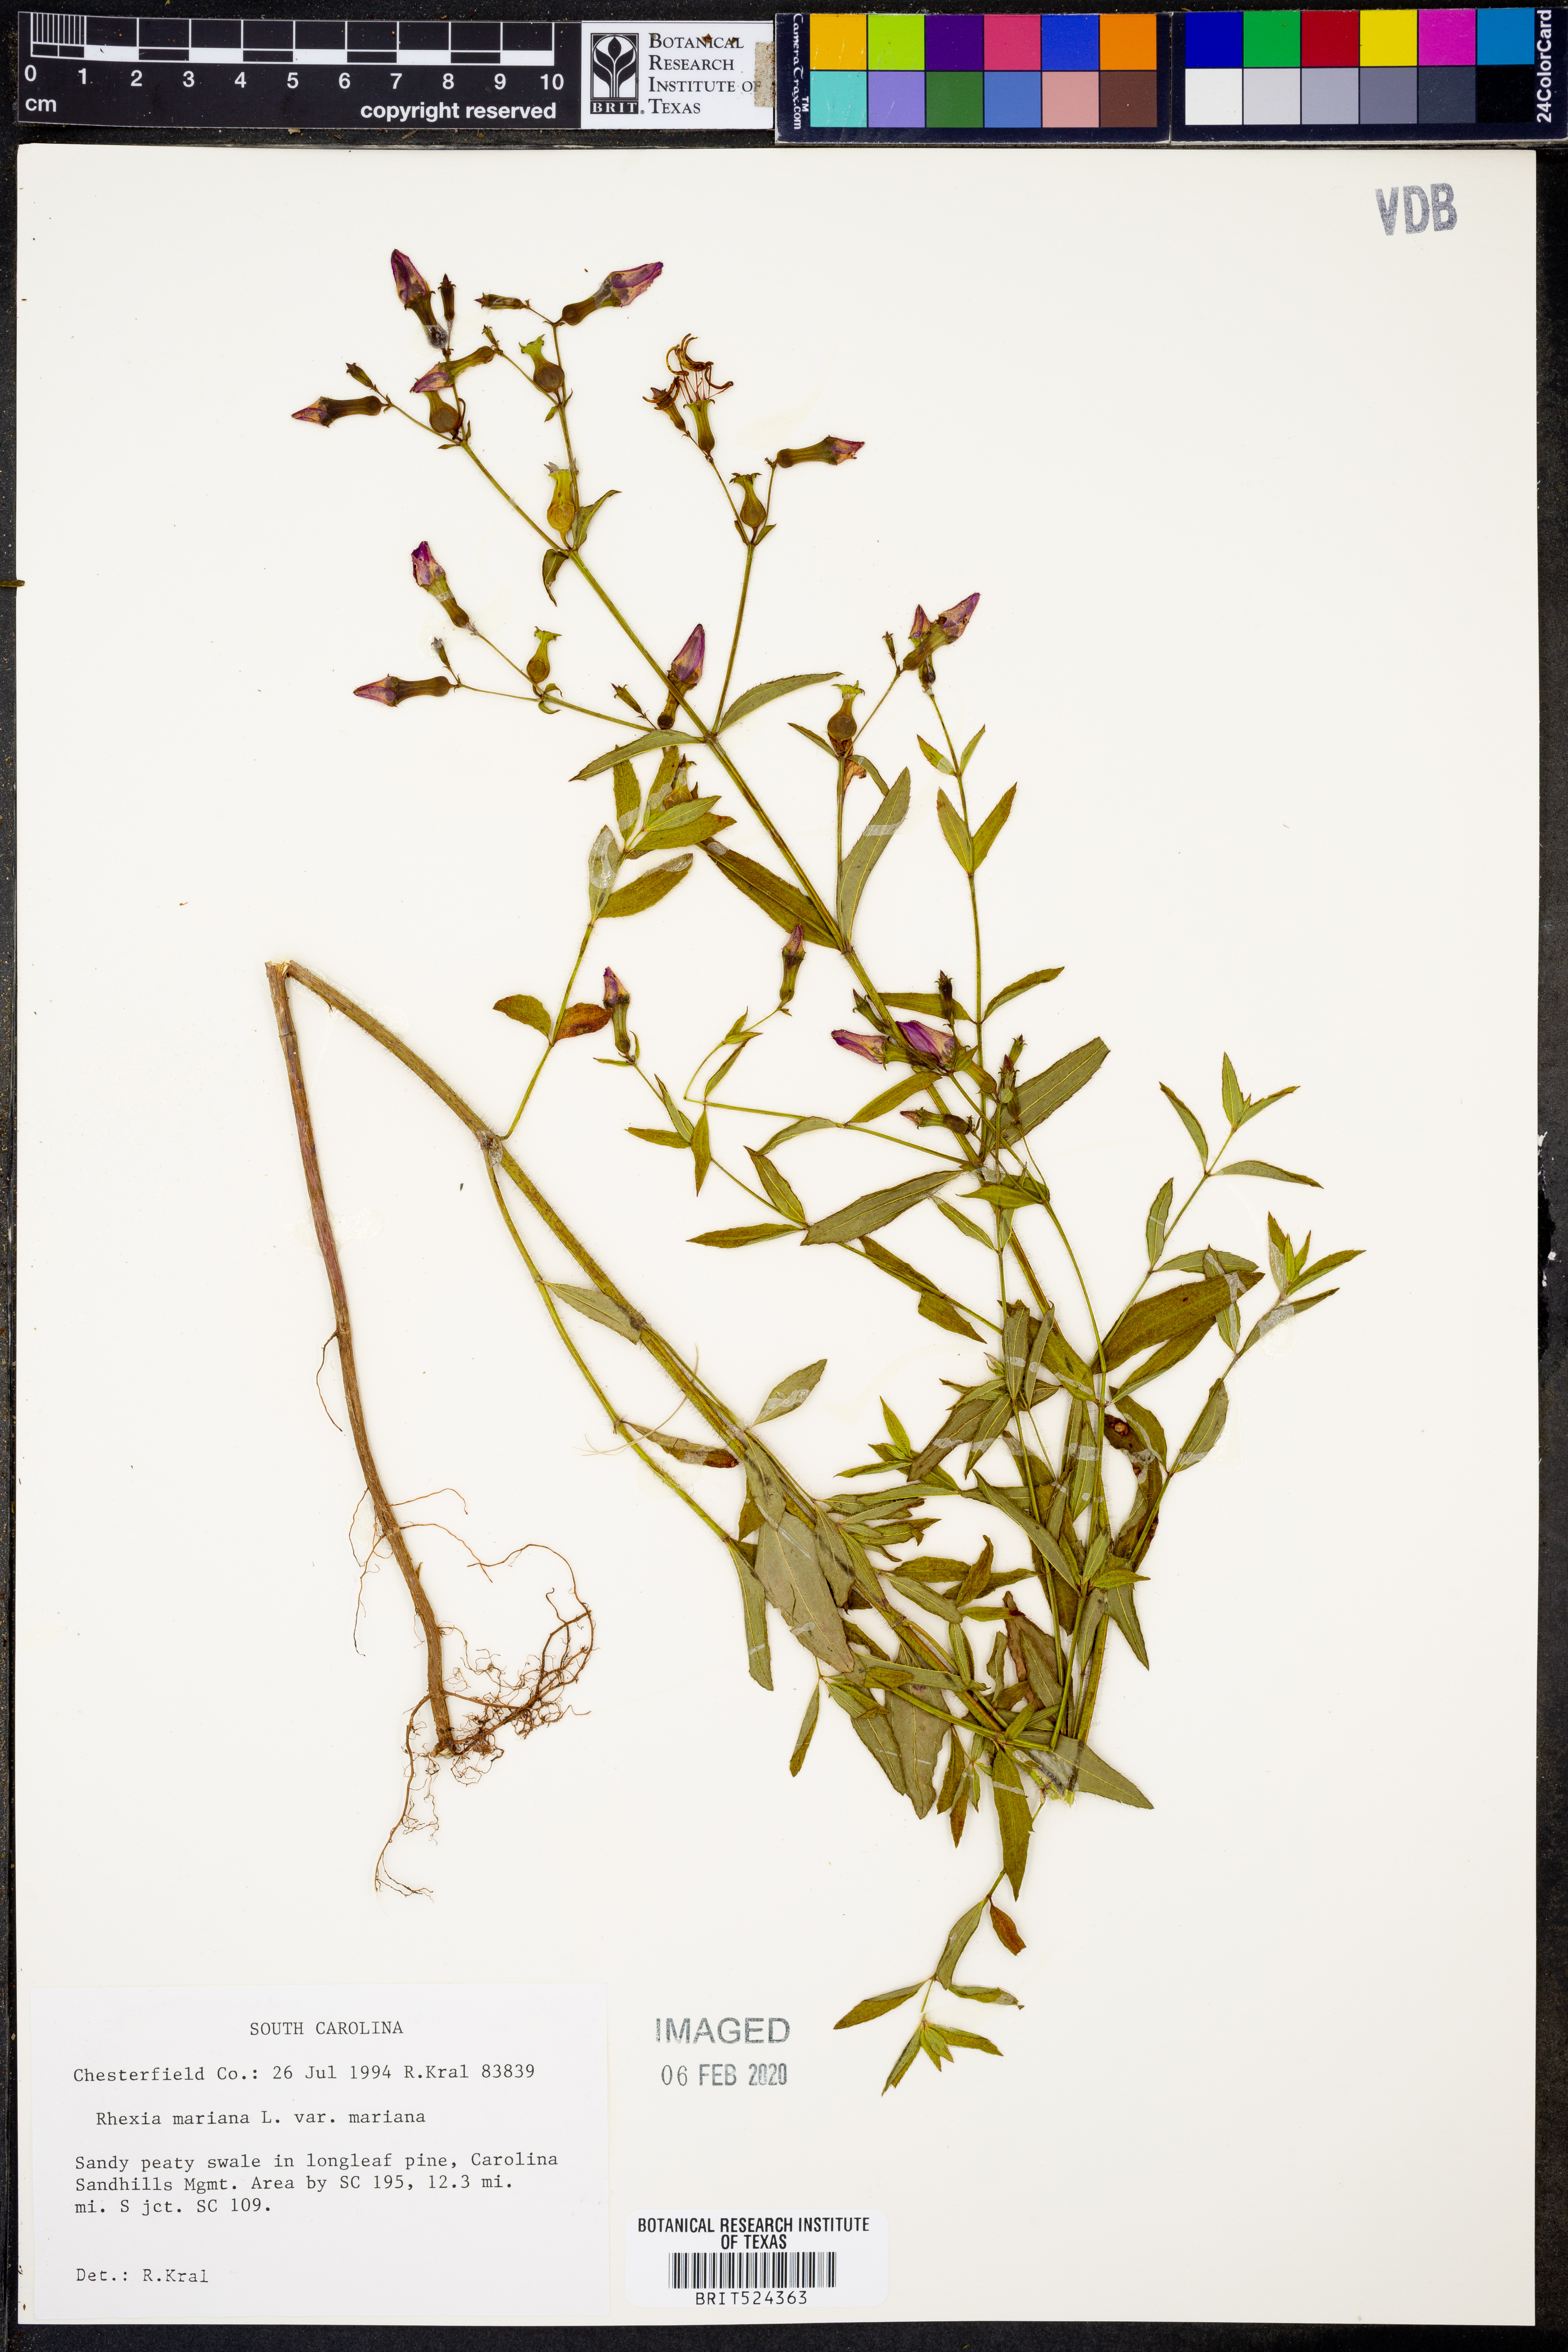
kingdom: Plantae
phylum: Tracheophyta
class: Magnoliopsida
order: Myrtales
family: Melastomataceae
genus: Rhexia
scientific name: Rhexia mariana
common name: Dull meadow-pitcher
